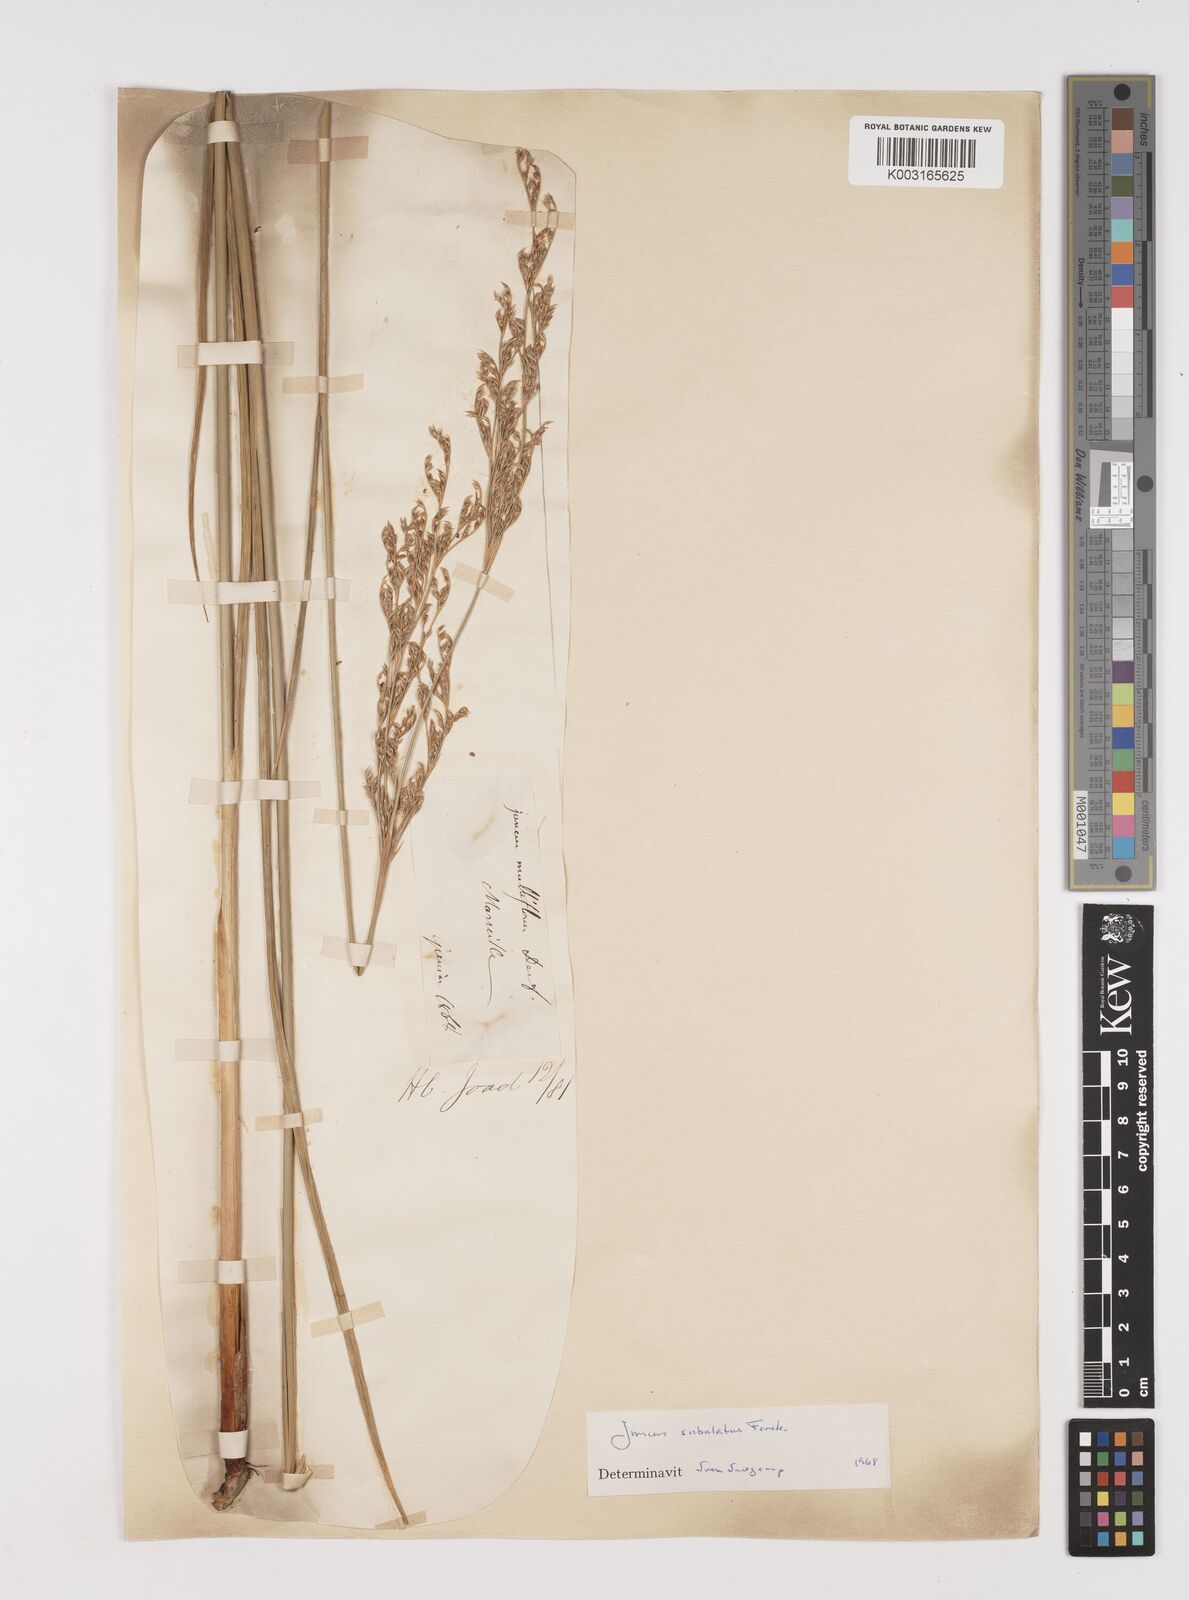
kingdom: Plantae
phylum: Tracheophyta
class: Liliopsida
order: Poales
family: Juncaceae
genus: Juncus
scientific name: Juncus subulatus
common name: Somerset rush
